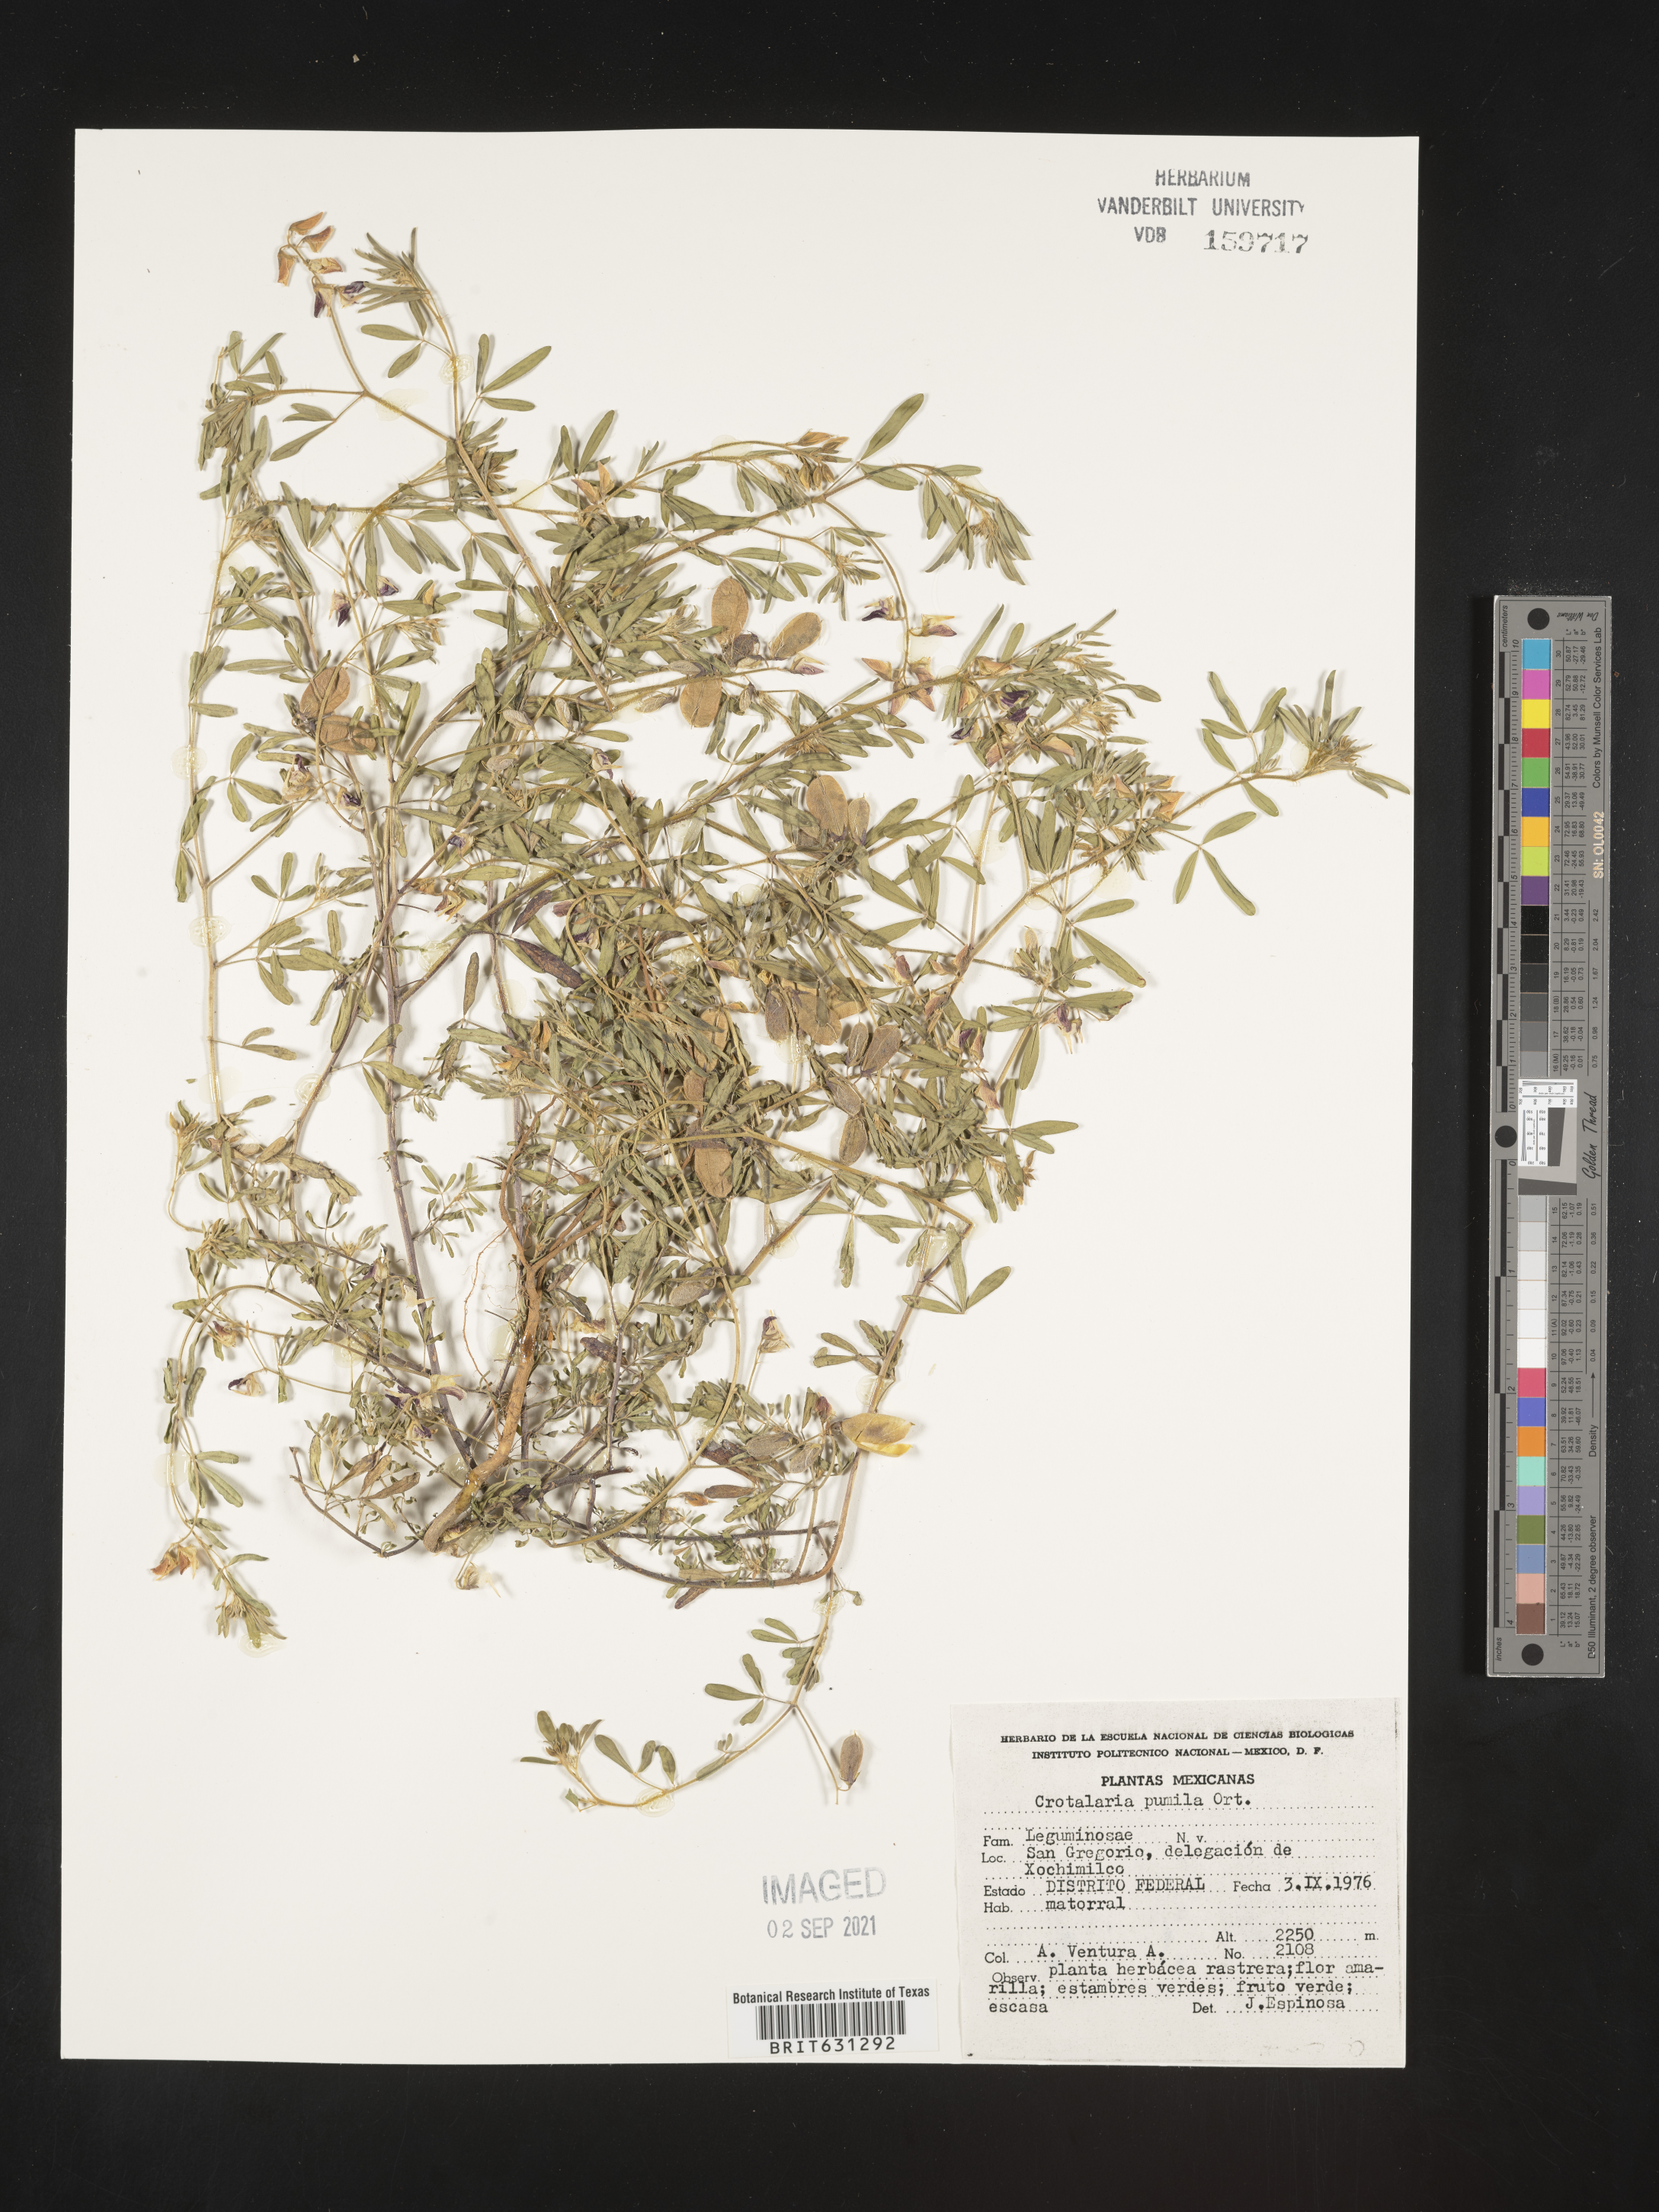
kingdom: Plantae
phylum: Tracheophyta
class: Magnoliopsida
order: Fabales
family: Fabaceae
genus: Crotalaria
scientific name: Crotalaria pumila
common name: Low rattlebox
